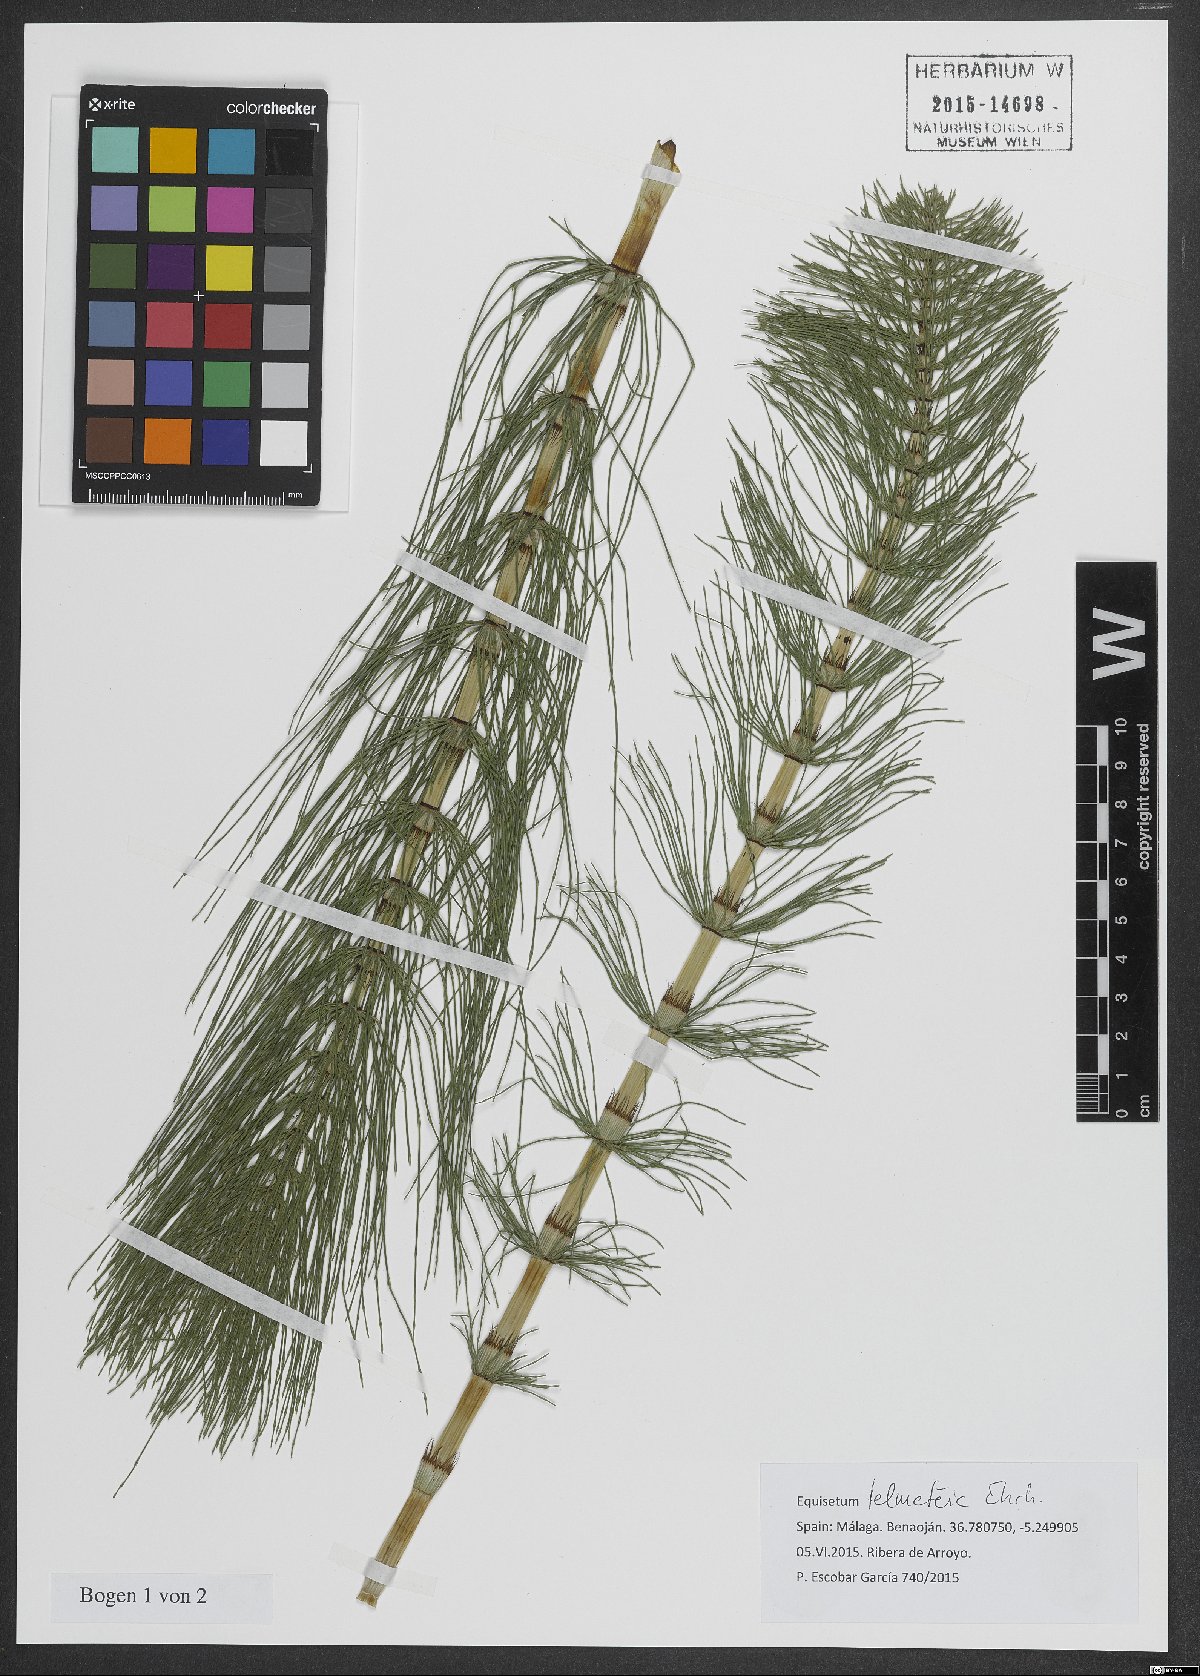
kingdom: Plantae
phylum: Tracheophyta
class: Polypodiopsida
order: Equisetales
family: Equisetaceae
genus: Equisetum
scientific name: Equisetum telmateia
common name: Great horsetail
